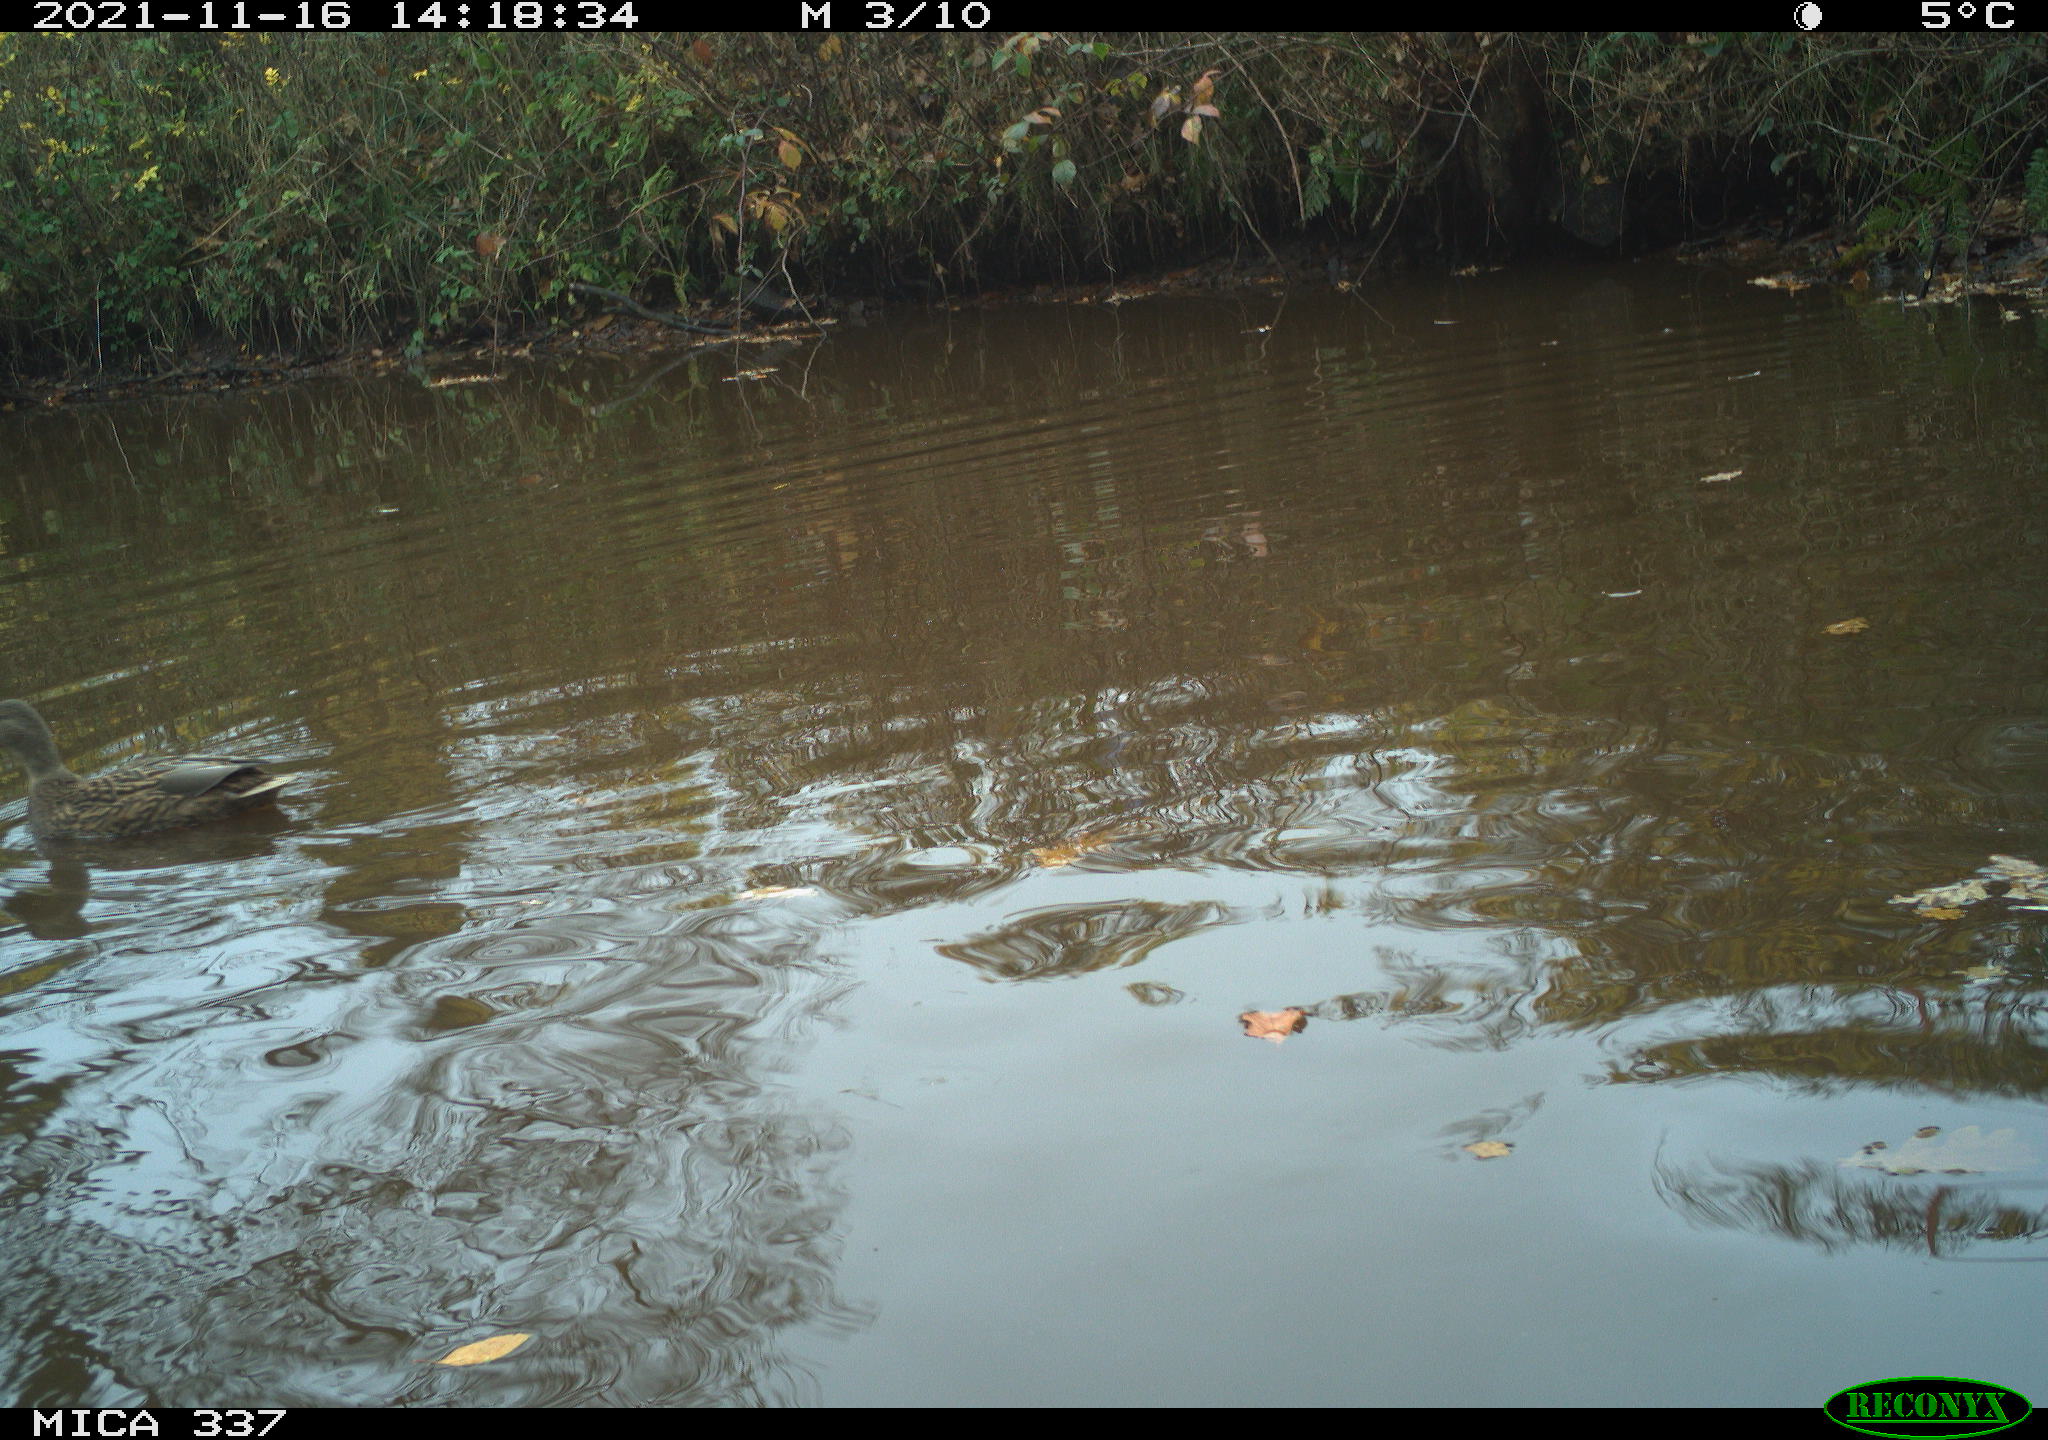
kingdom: Animalia
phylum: Chordata
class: Aves
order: Anseriformes
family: Anatidae
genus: Anas
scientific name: Anas platyrhynchos
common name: Mallard
